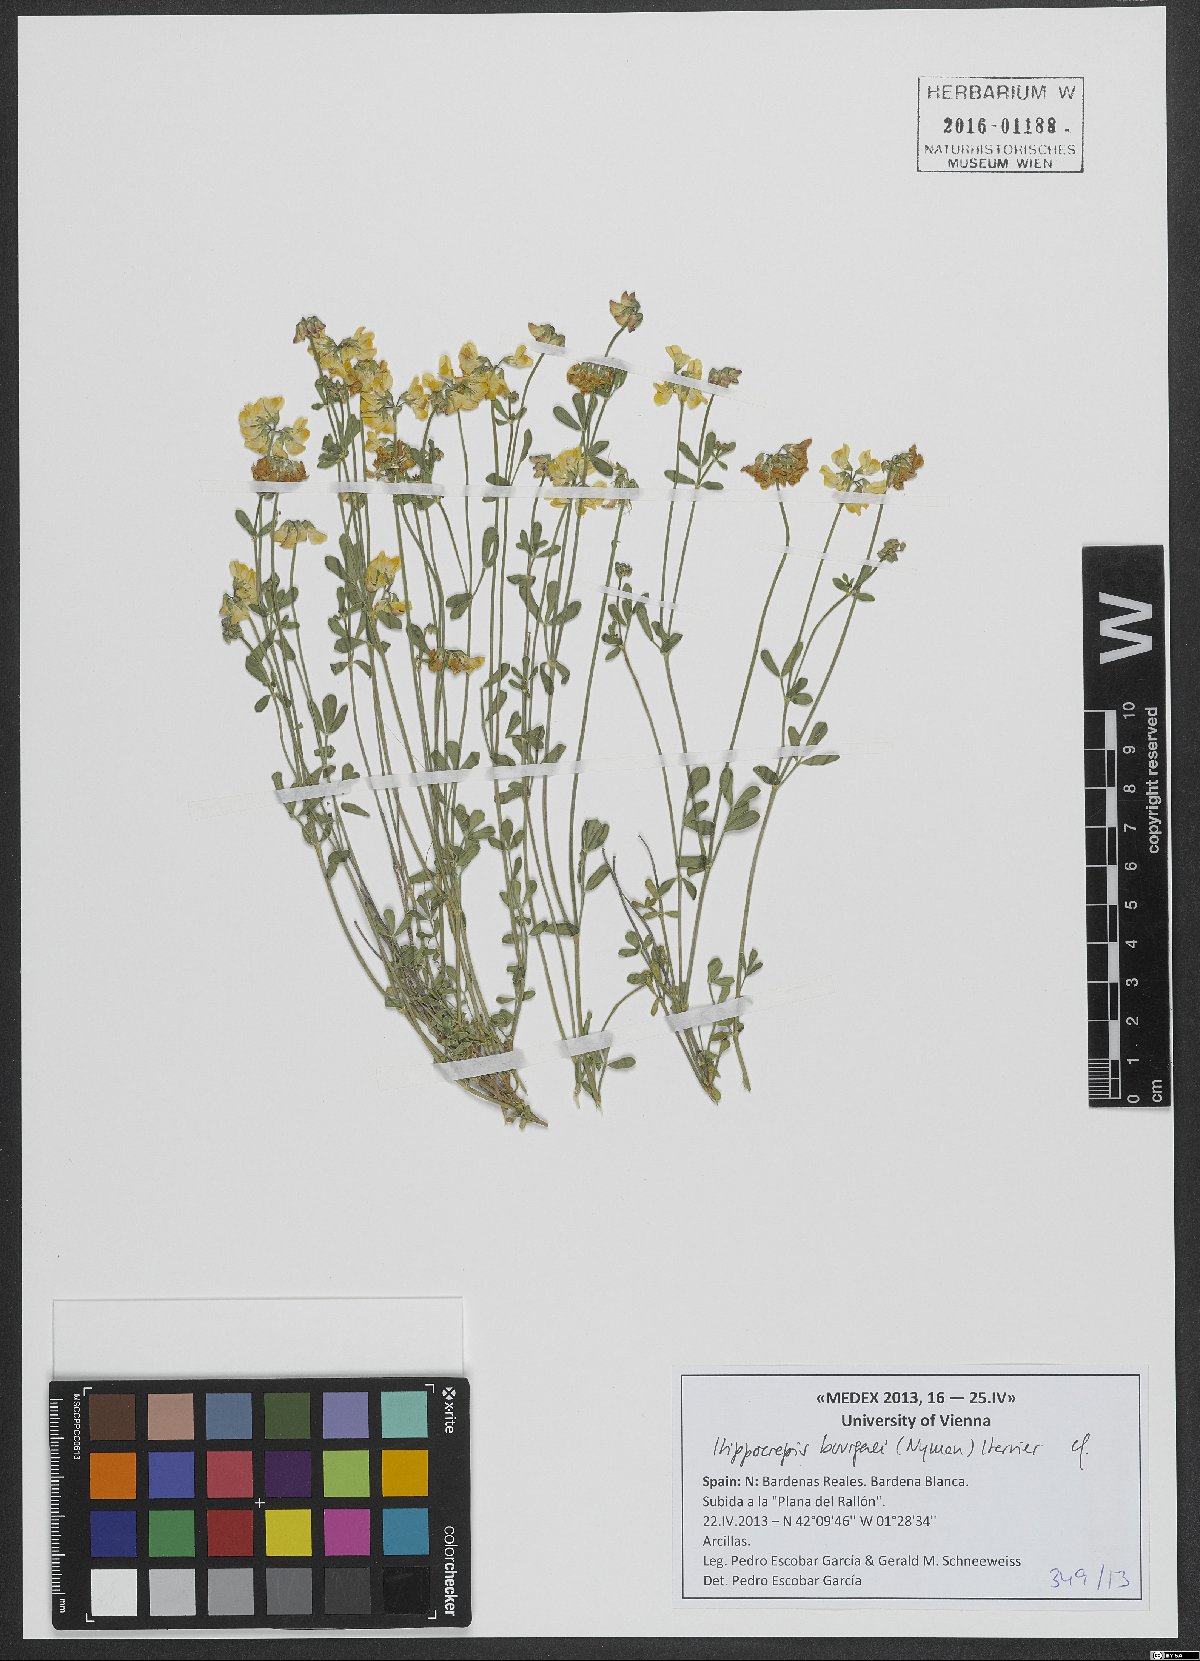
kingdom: Plantae
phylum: Tracheophyta
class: Magnoliopsida
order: Fabales
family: Fabaceae
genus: Hippocrepis
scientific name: Hippocrepis bourgaei
